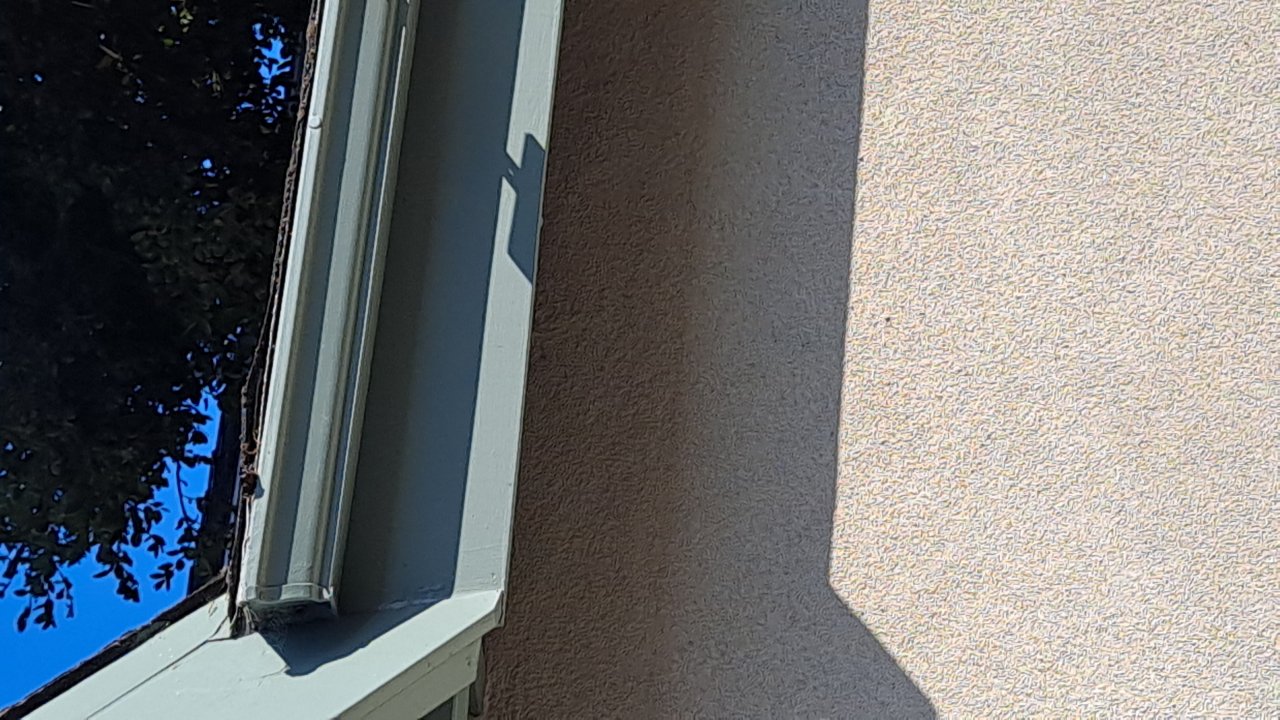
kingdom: Animalia
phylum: Arthropoda
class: Insecta
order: Lepidoptera
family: Nymphalidae
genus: Danaus
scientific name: Danaus plexippus
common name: Monarch
